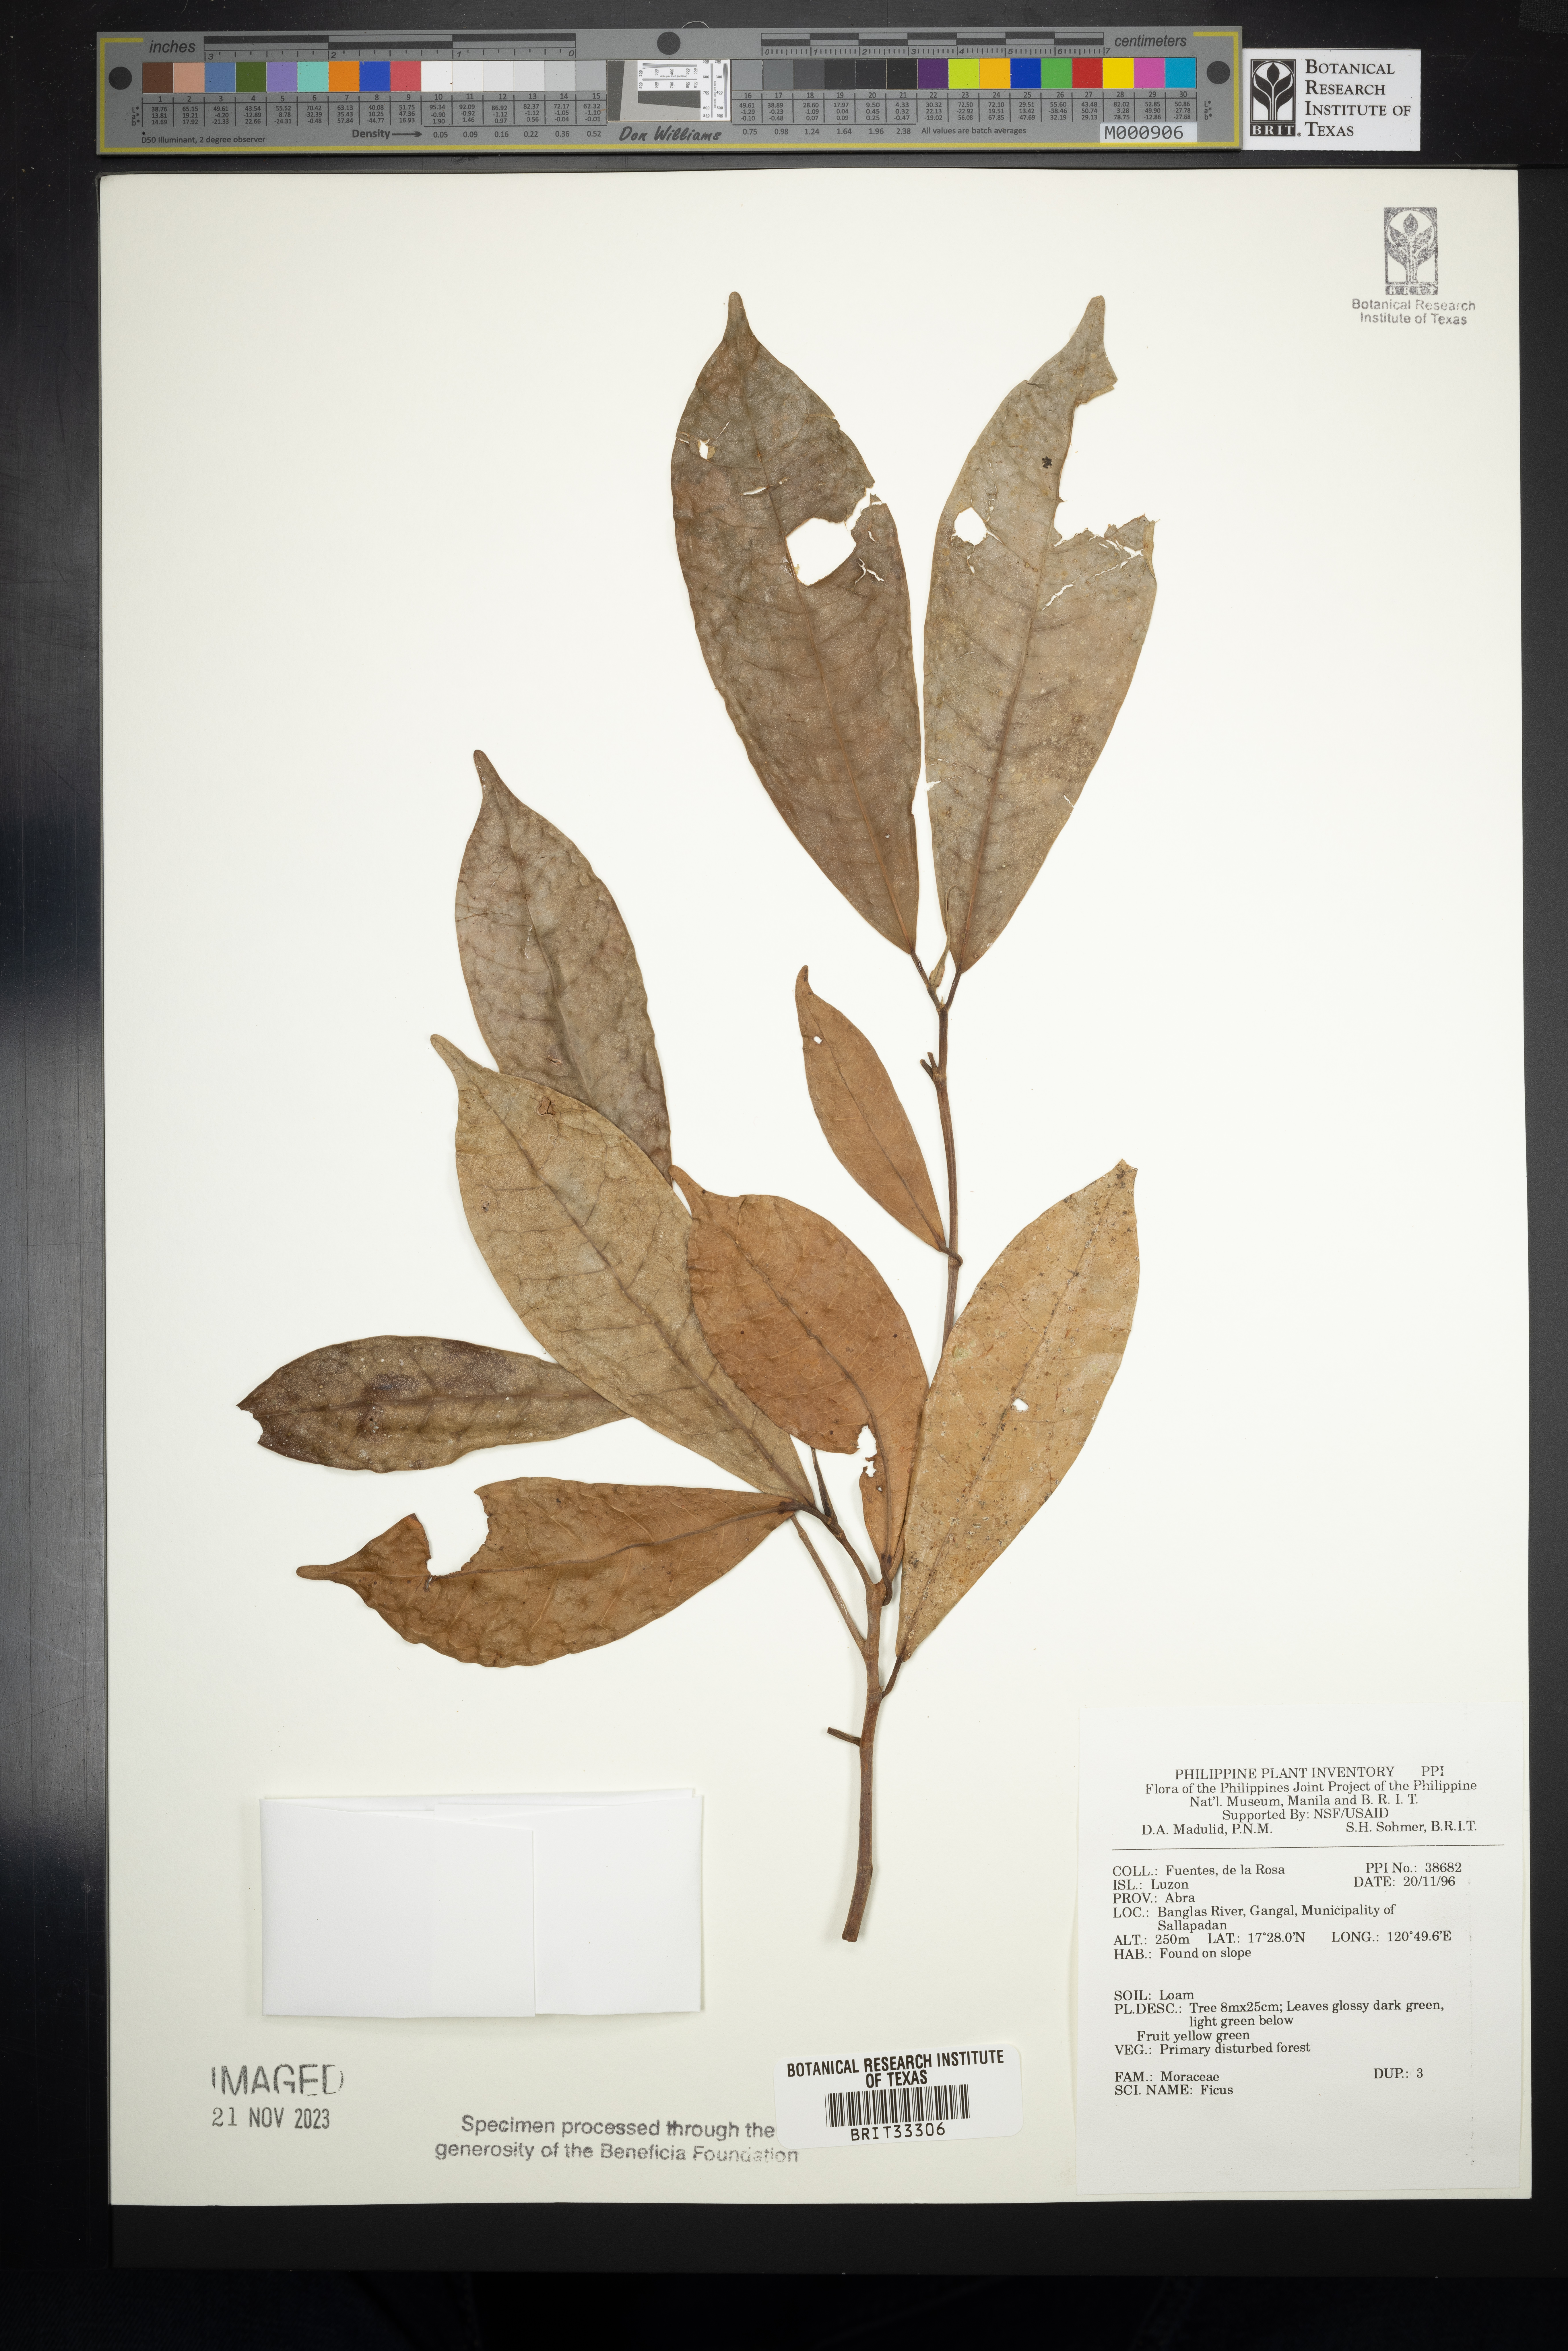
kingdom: Plantae
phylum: Tracheophyta
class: Magnoliopsida
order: Rosales
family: Moraceae
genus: Ficus
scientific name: Ficus
